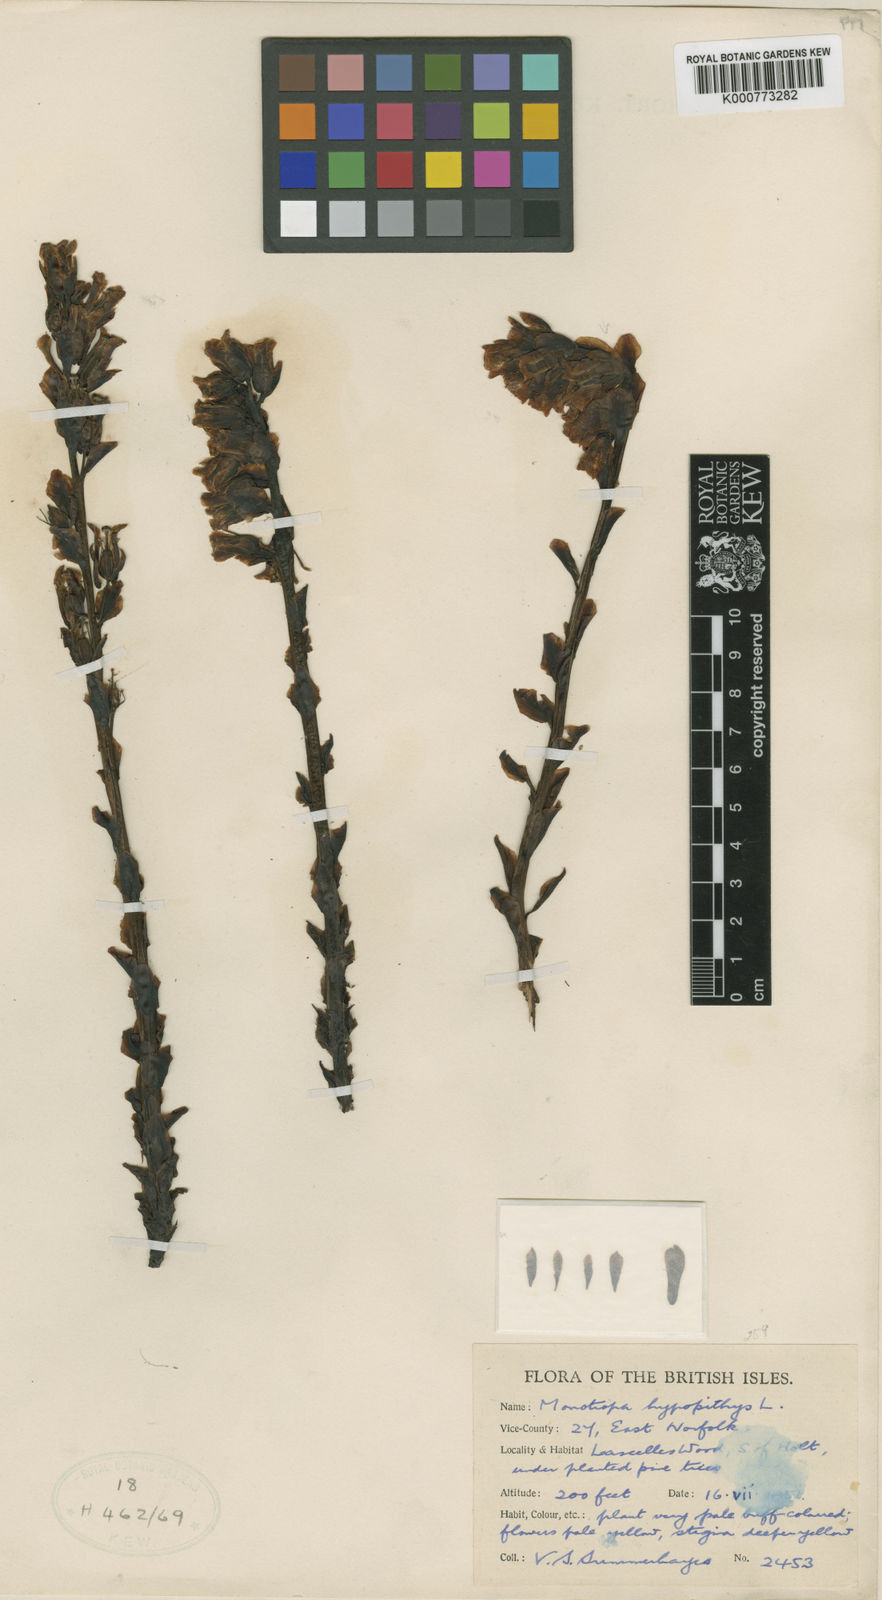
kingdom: Plantae
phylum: Tracheophyta
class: Magnoliopsida
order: Ericales
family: Ericaceae
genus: Monotropa
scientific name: Monotropa
